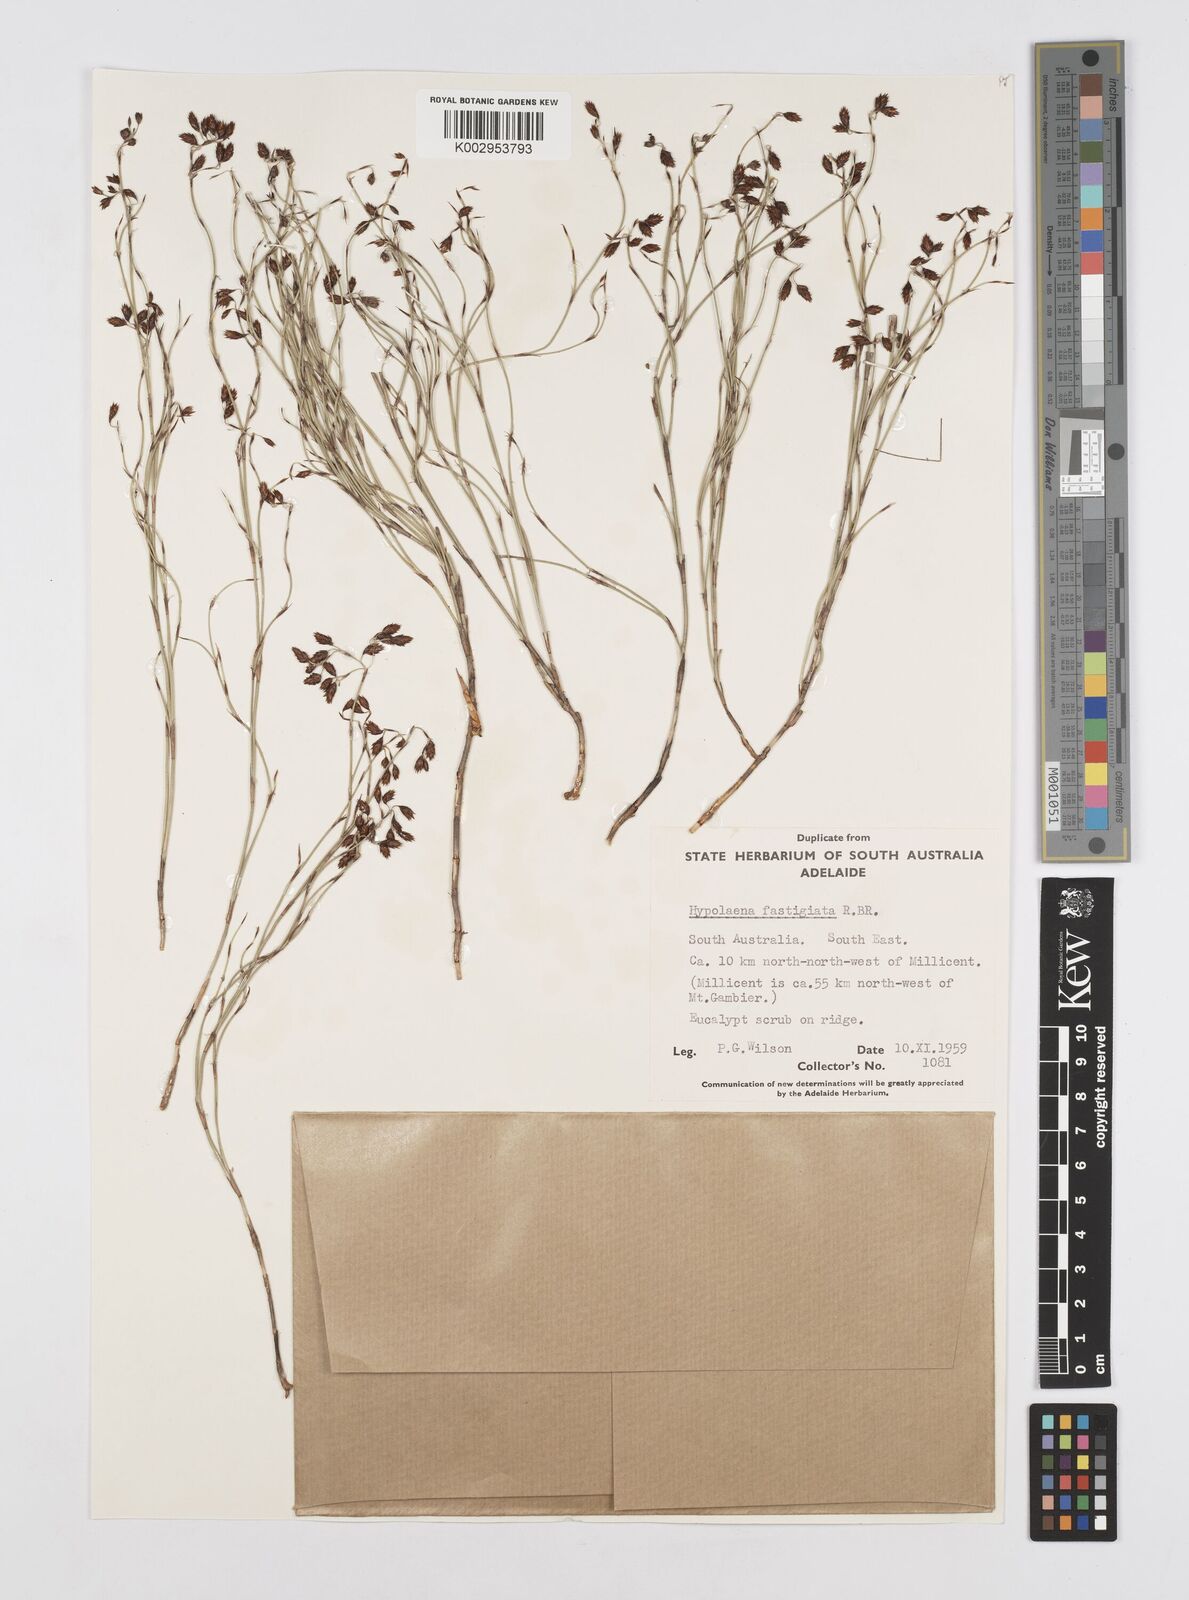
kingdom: Plantae
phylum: Tracheophyta
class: Liliopsida
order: Poales
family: Restionaceae
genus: Hypolaena
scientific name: Hypolaena fastigiata
